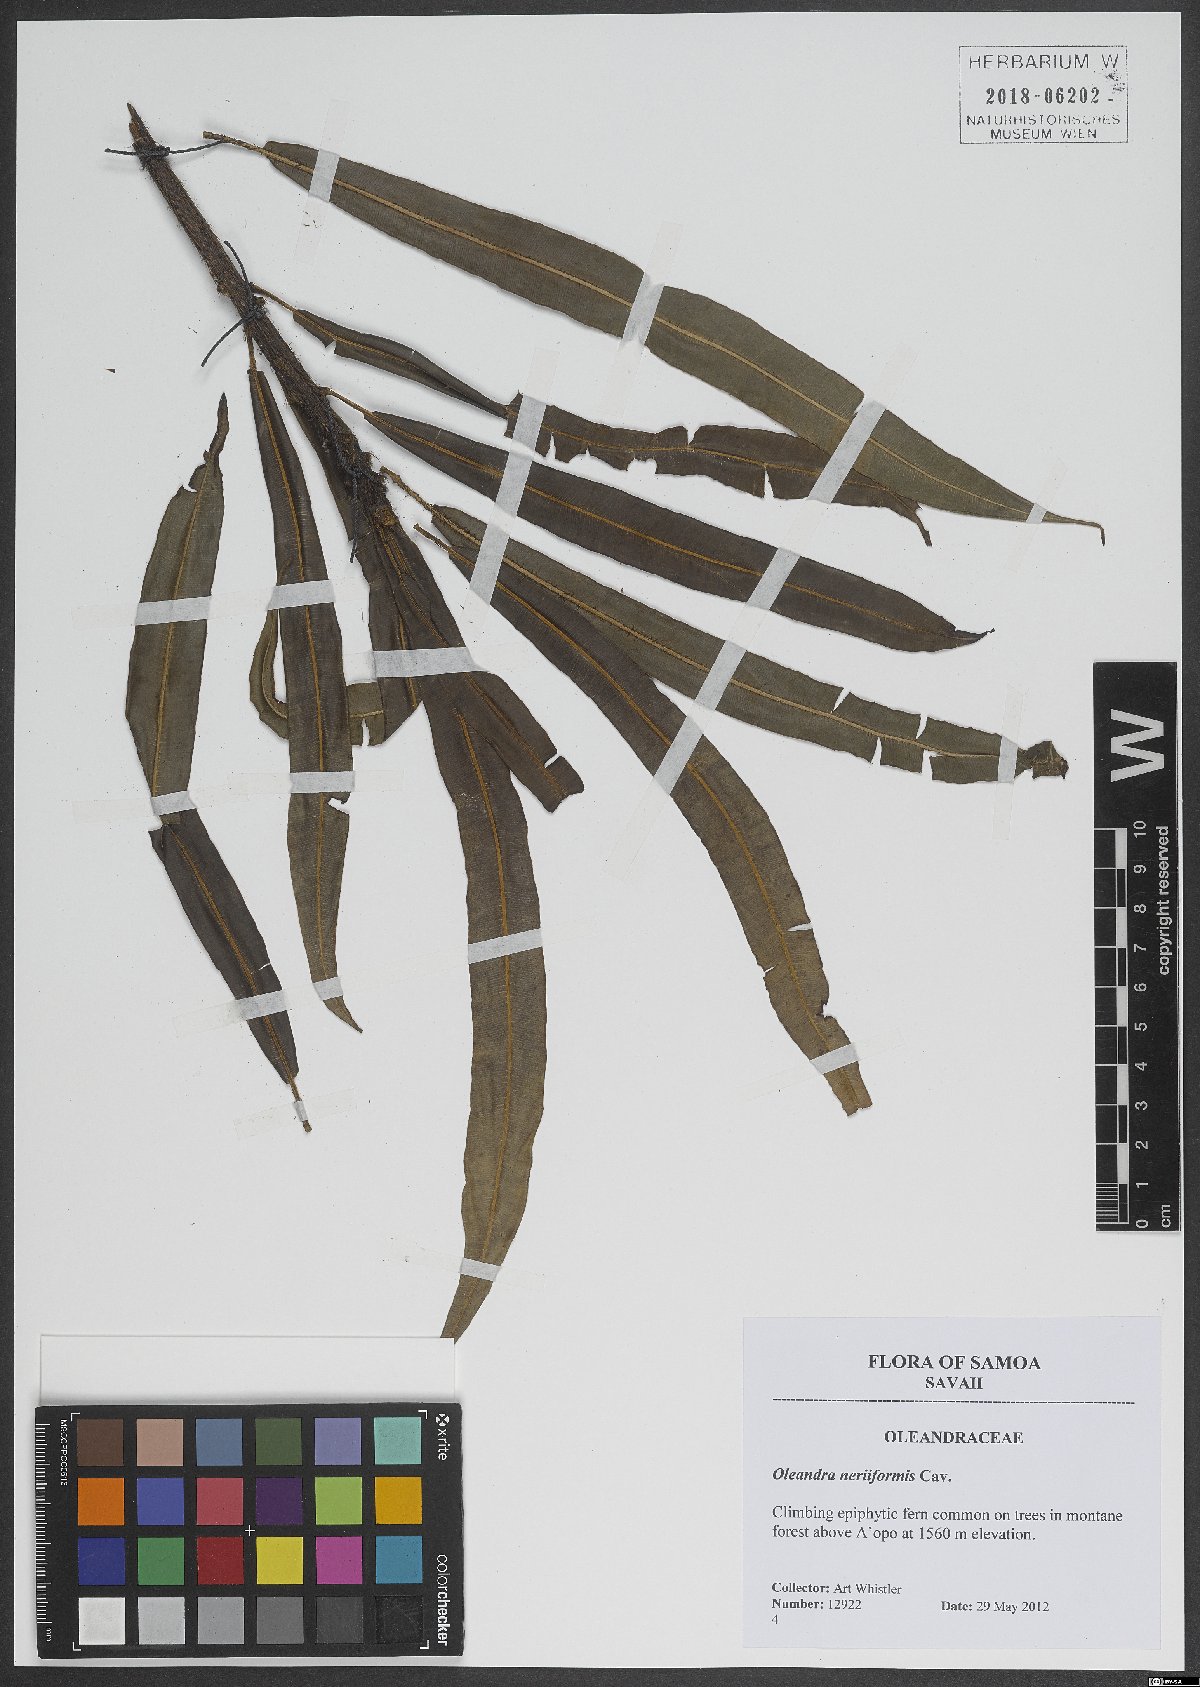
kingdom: Plantae
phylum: Tracheophyta
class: Polypodiopsida
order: Polypodiales
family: Oleandraceae
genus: Oleandra
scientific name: Oleandra neriiformis
